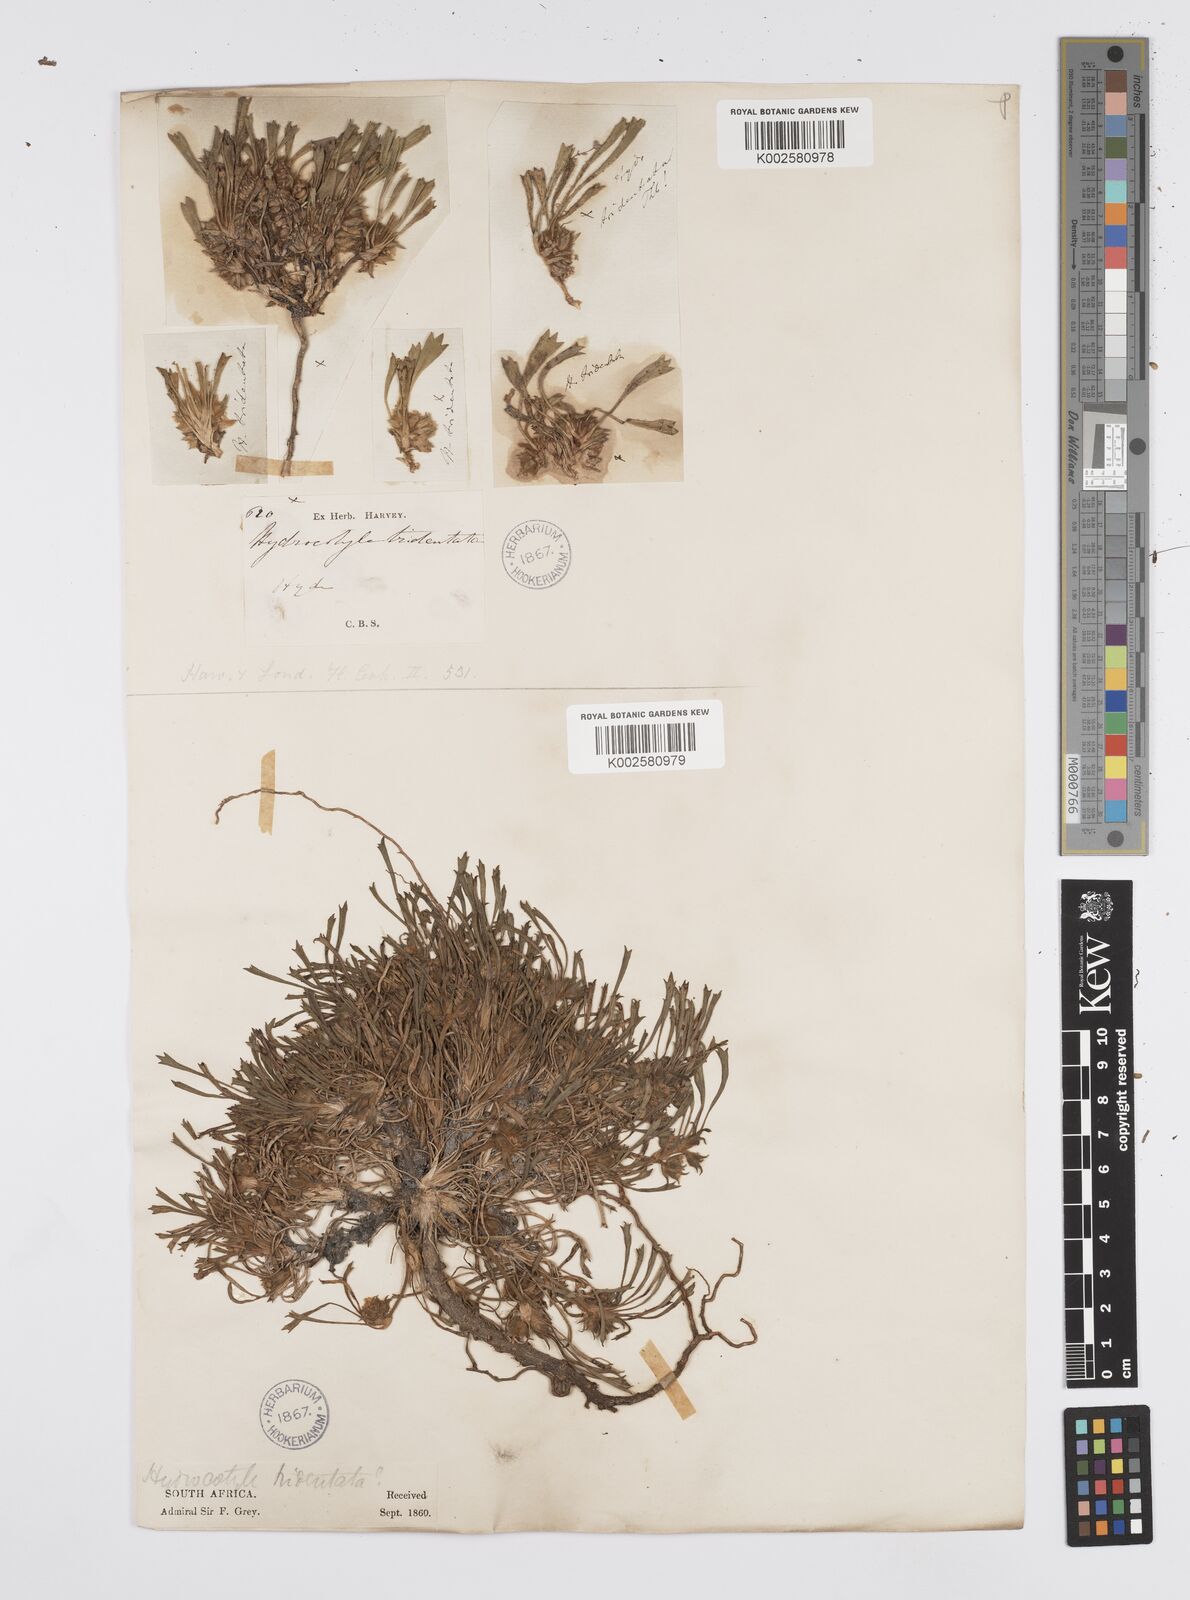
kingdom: Plantae
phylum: Tracheophyta
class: Magnoliopsida
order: Apiales
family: Apiaceae
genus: Centella
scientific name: Centella tridentata
